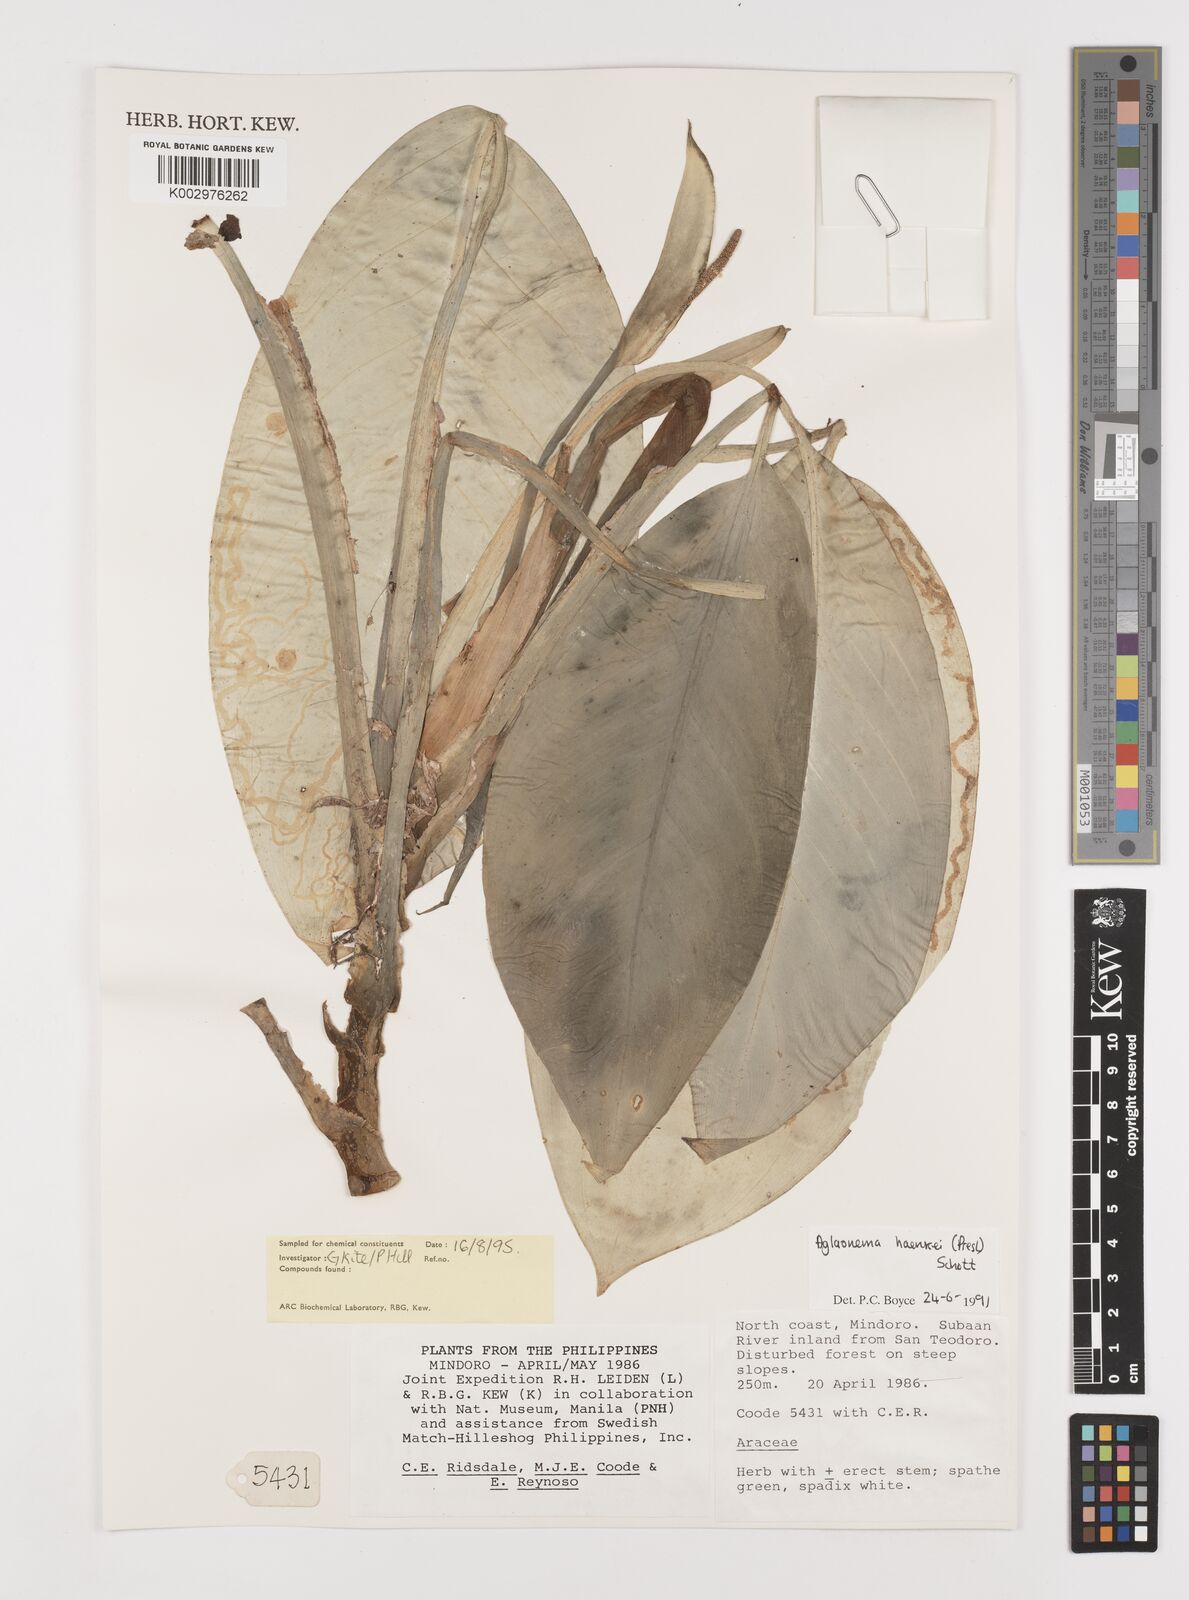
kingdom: Plantae
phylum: Tracheophyta
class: Liliopsida
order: Alismatales
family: Araceae
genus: Aglaonema
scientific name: Aglaonema densinervium
